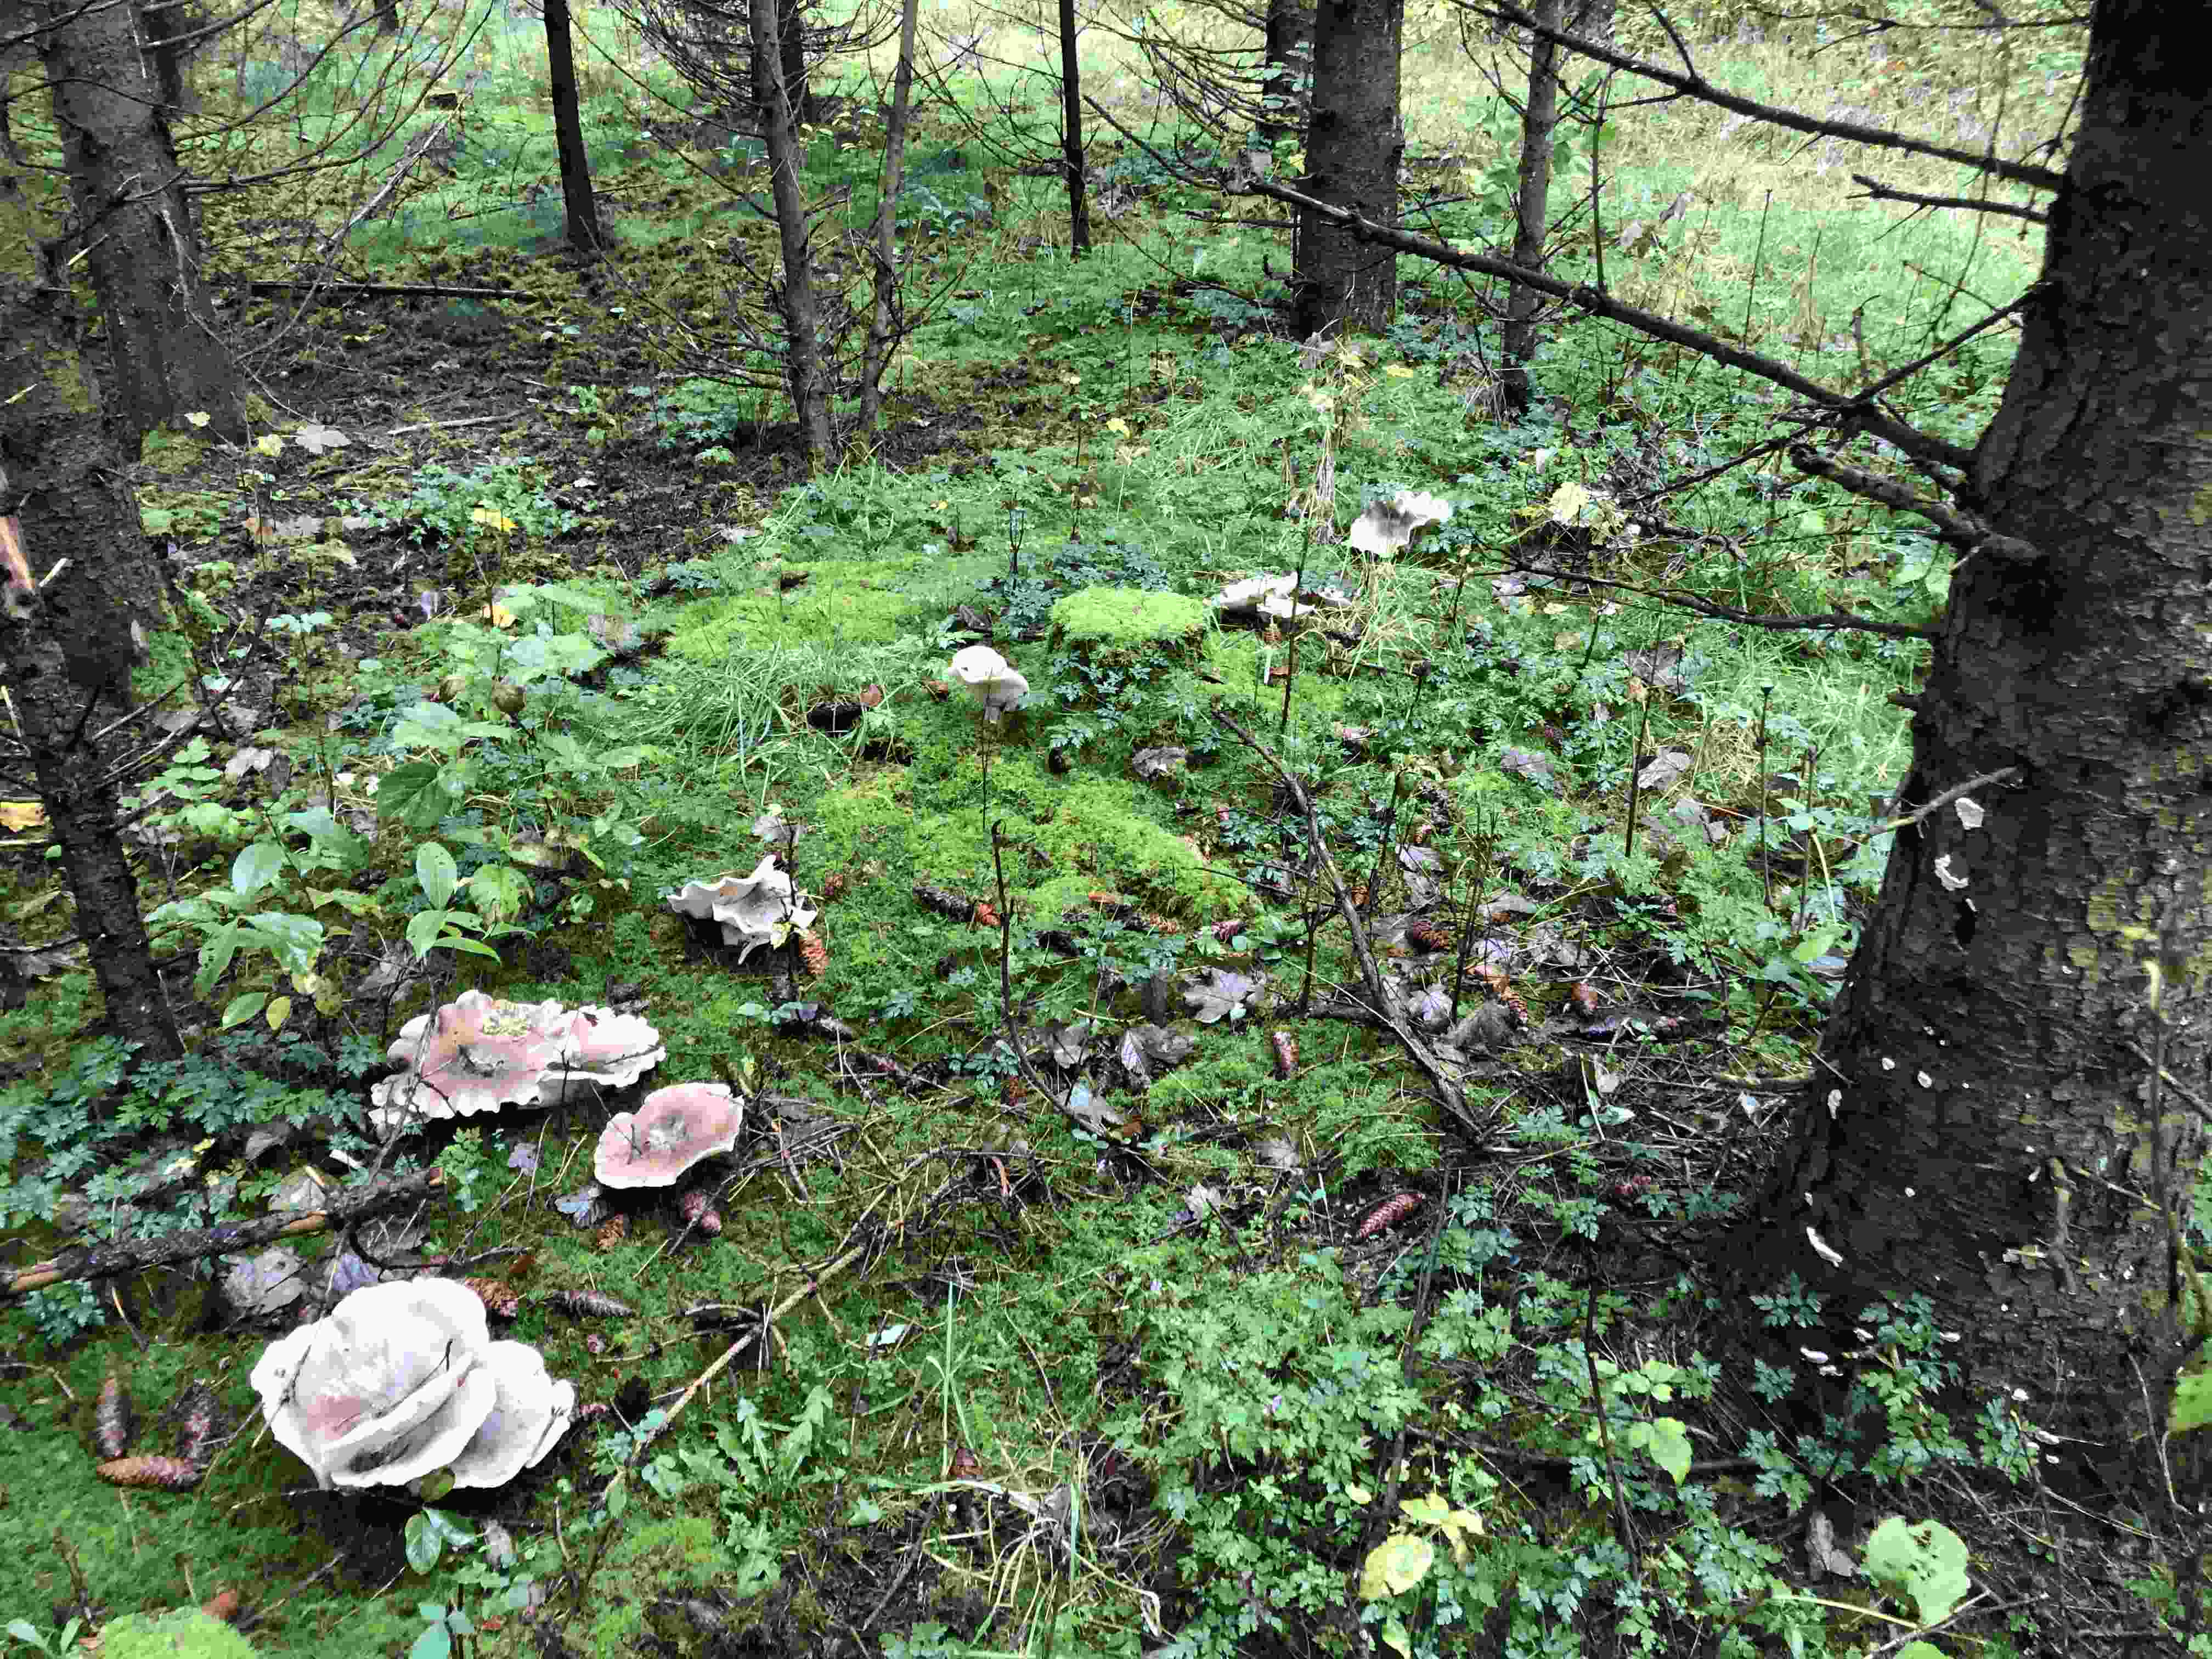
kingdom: Fungi
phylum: Basidiomycota
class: Agaricomycetes
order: Agaricales
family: Tricholomataceae
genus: Clitocybe
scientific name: Clitocybe nebularis
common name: tåge-tragthat
